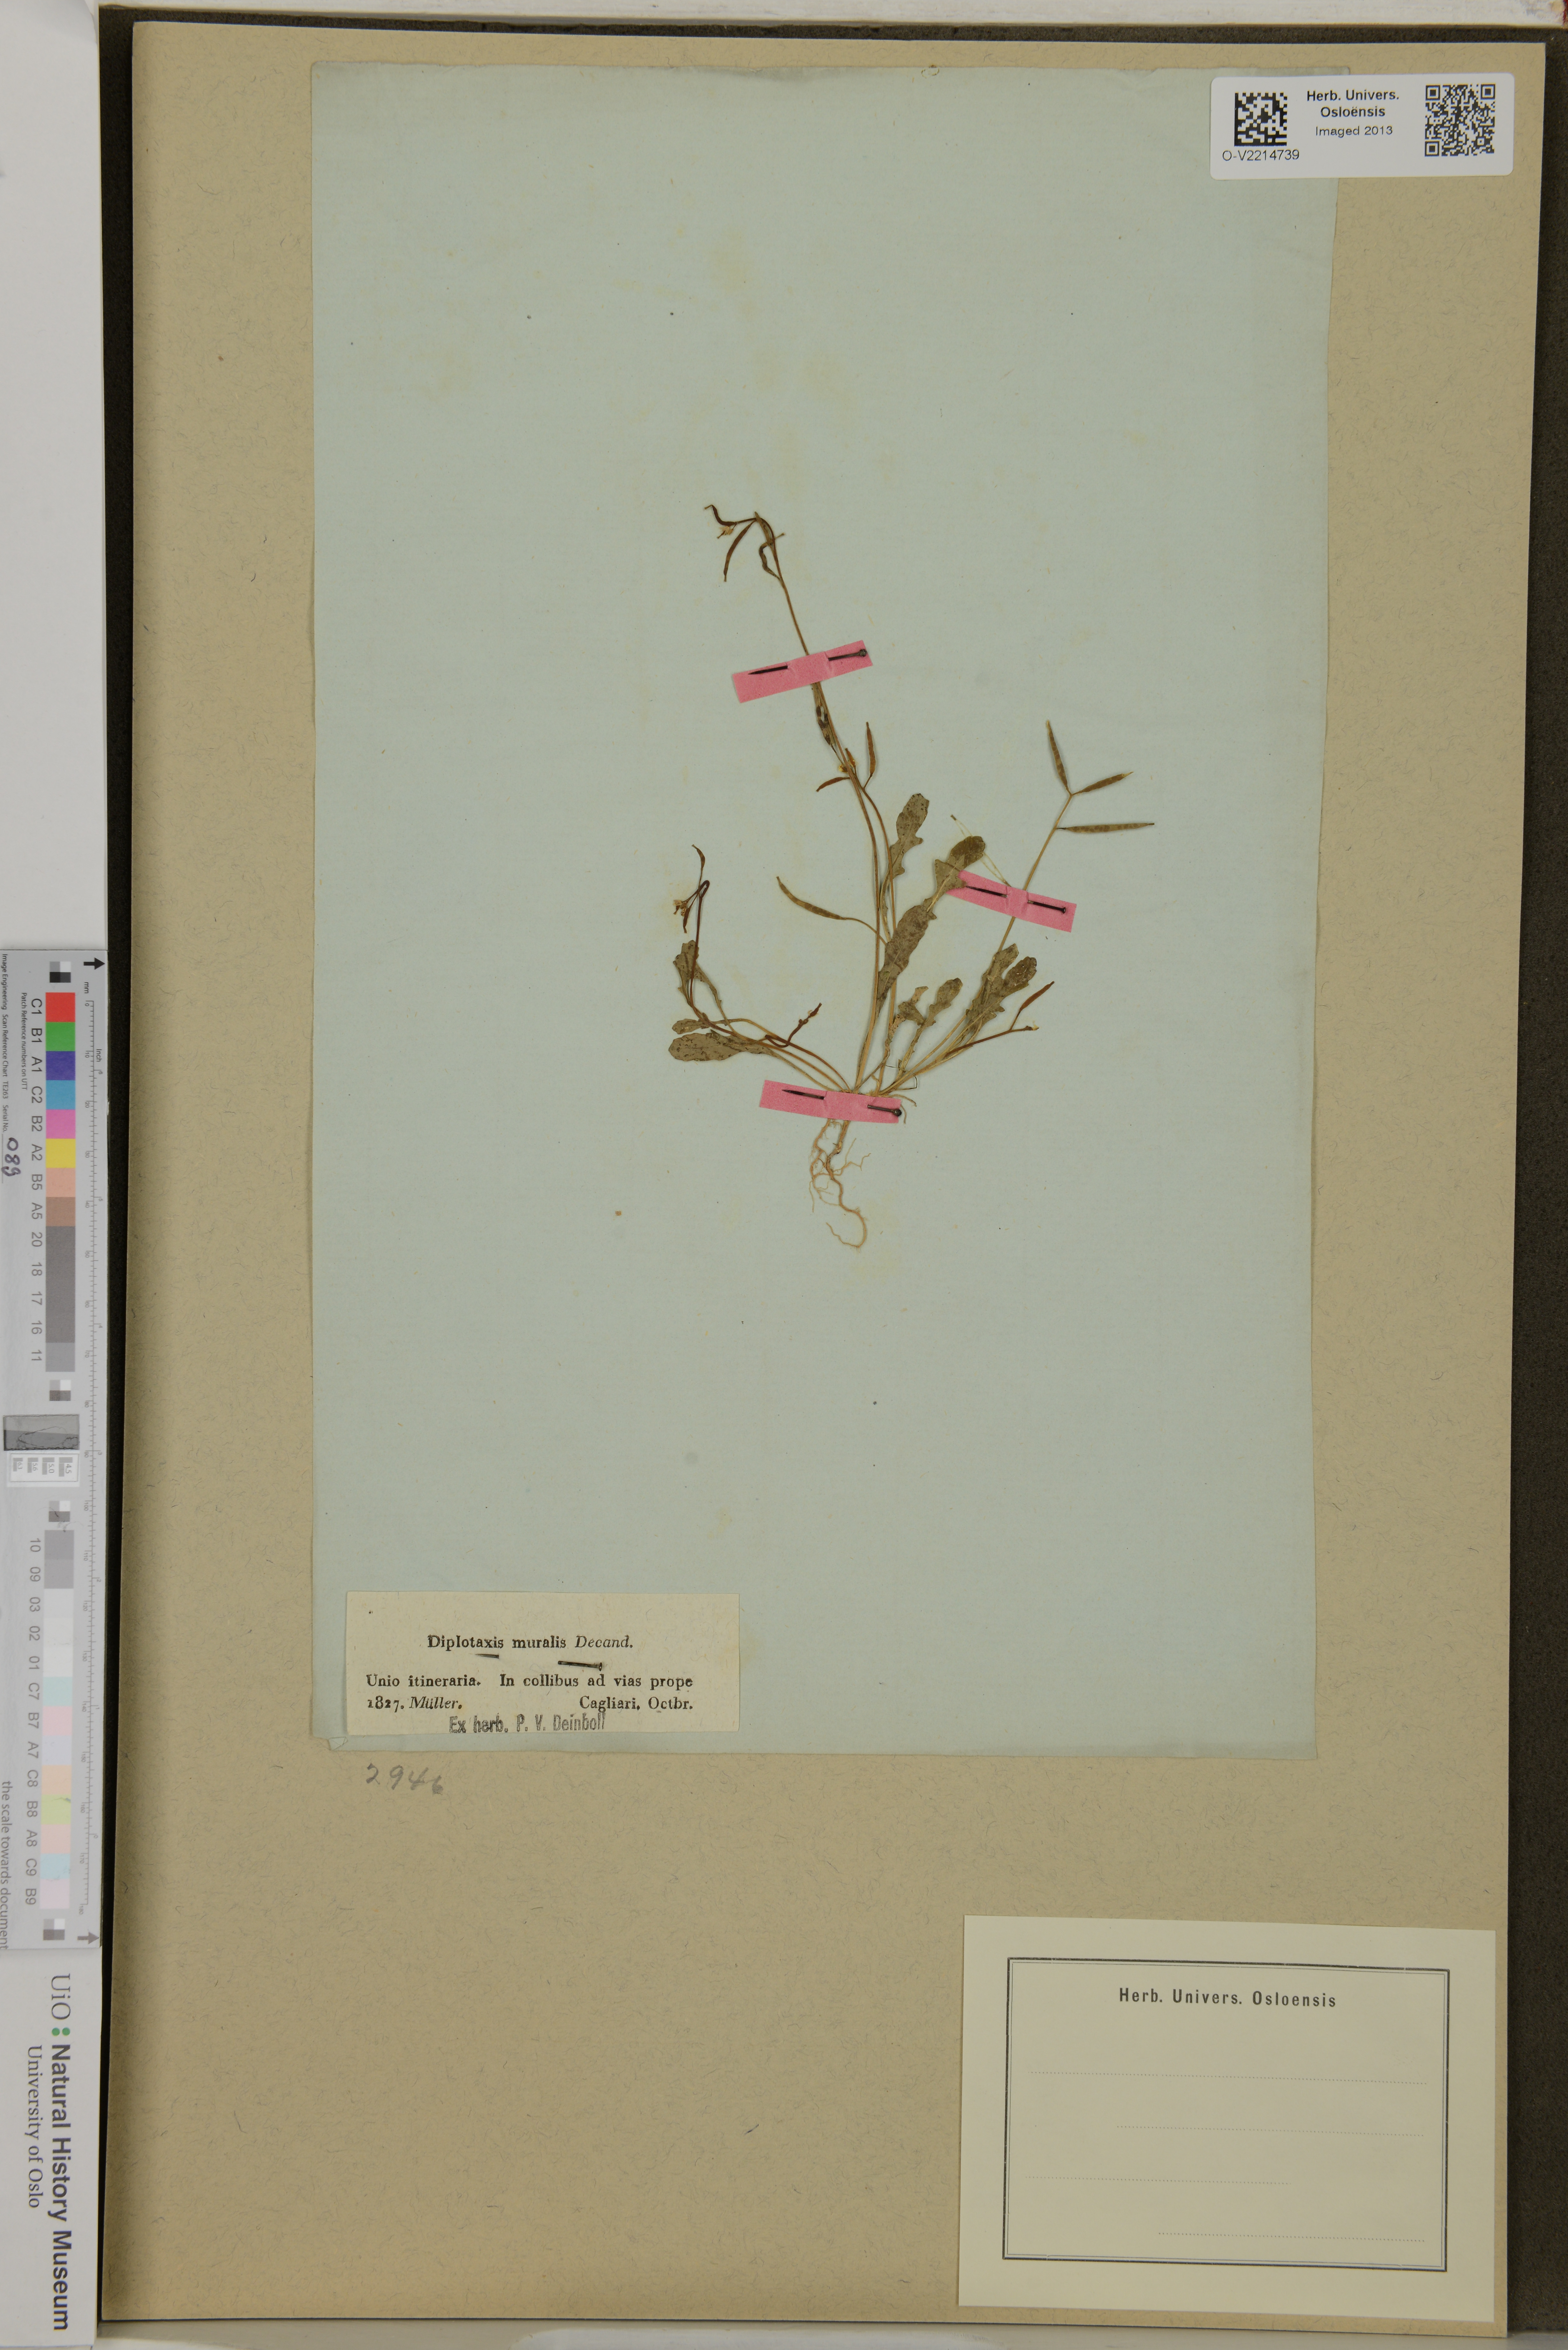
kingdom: Plantae
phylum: Tracheophyta
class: Magnoliopsida
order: Brassicales
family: Brassicaceae
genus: Diplotaxis
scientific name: Diplotaxis muralis
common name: Annual wall-rocket
